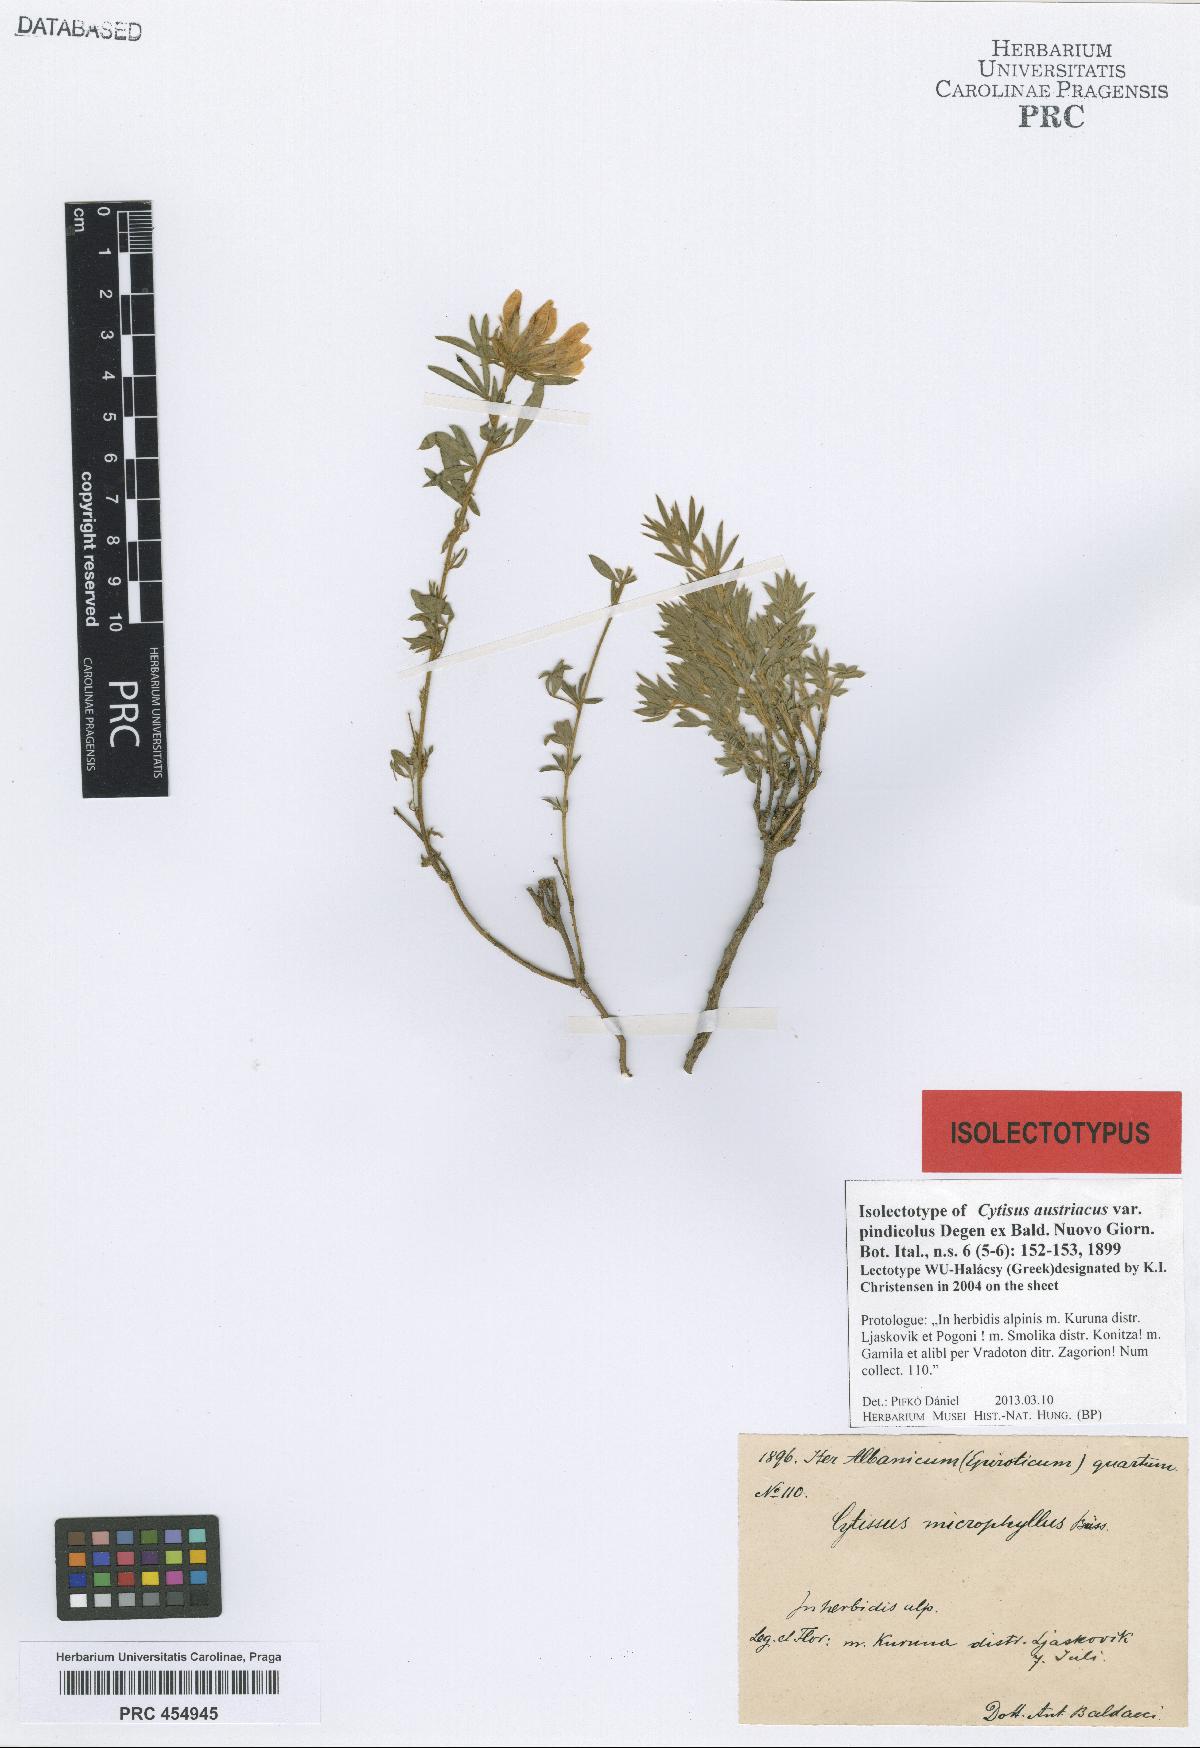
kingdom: Plantae
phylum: Tracheophyta
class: Magnoliopsida
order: Fabales
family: Fabaceae
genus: Chamaecytisus
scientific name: Chamaecytisus austriacus
